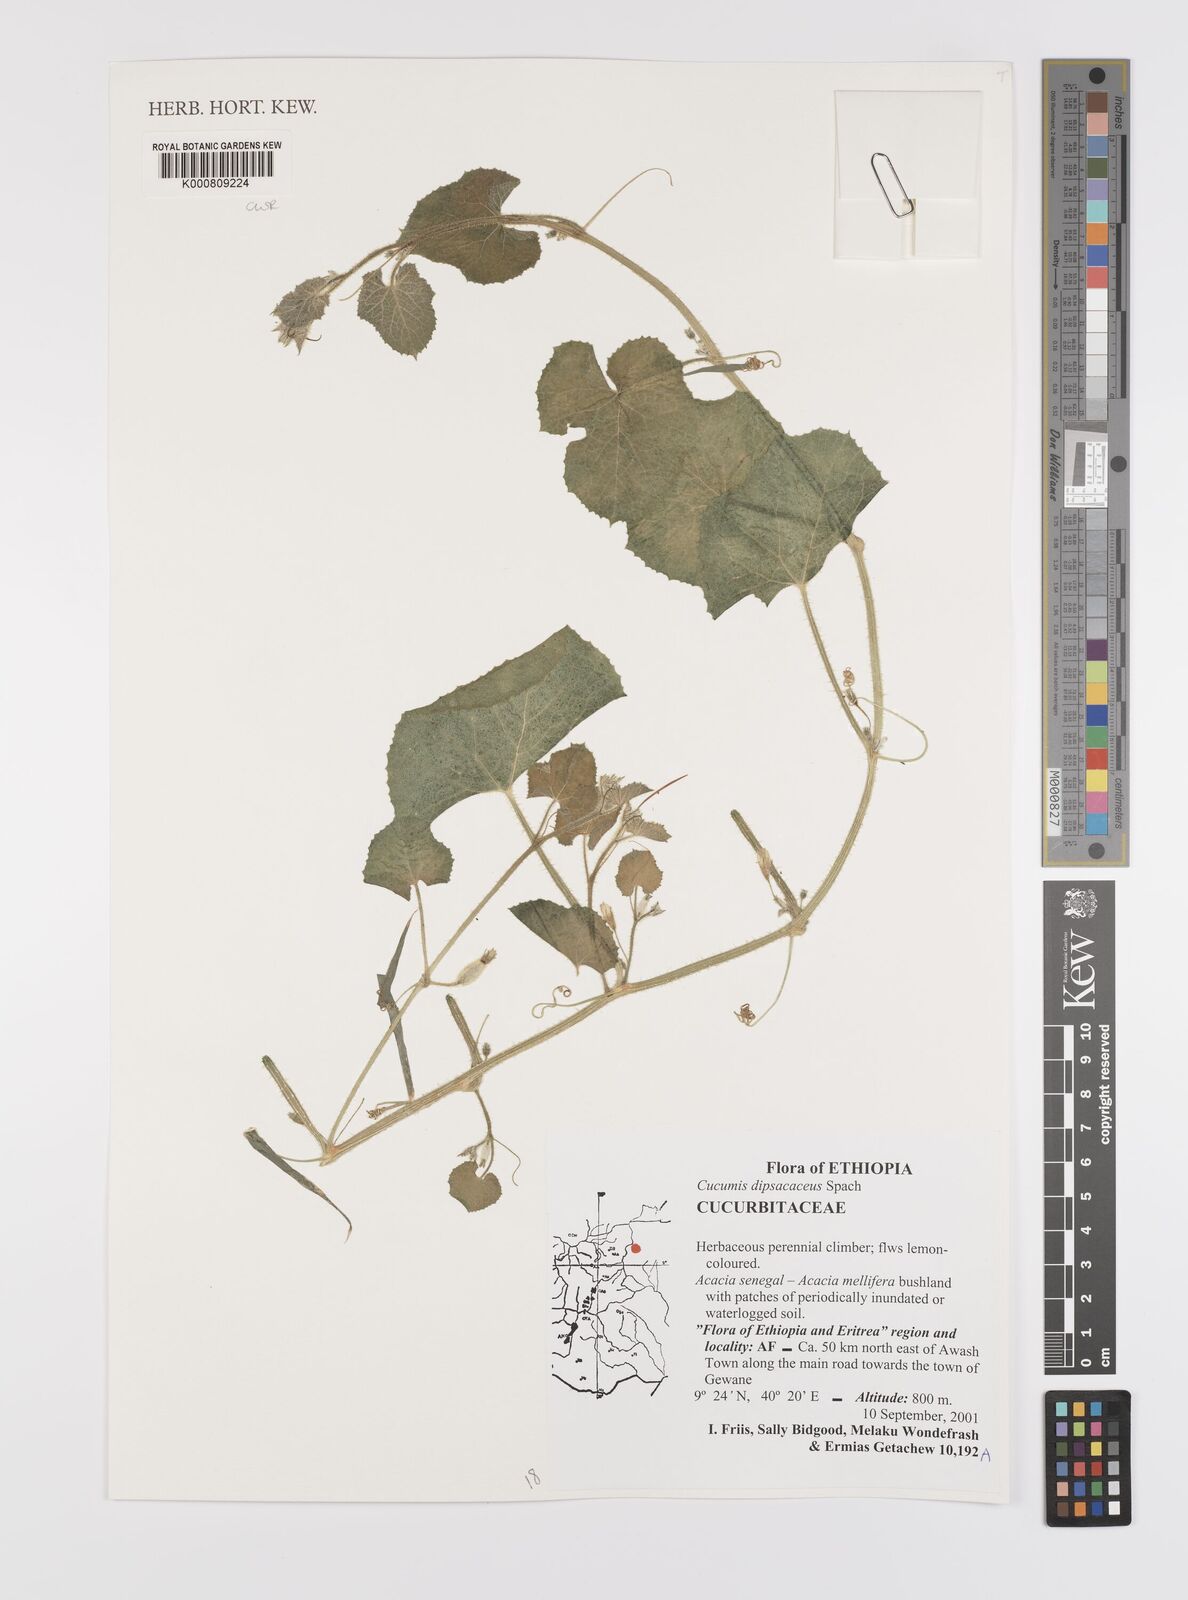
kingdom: Plantae
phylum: Tracheophyta
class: Magnoliopsida
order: Cucurbitales
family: Cucurbitaceae
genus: Cucumis
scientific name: Cucumis dipsaceus
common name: Hedgehog gourd
